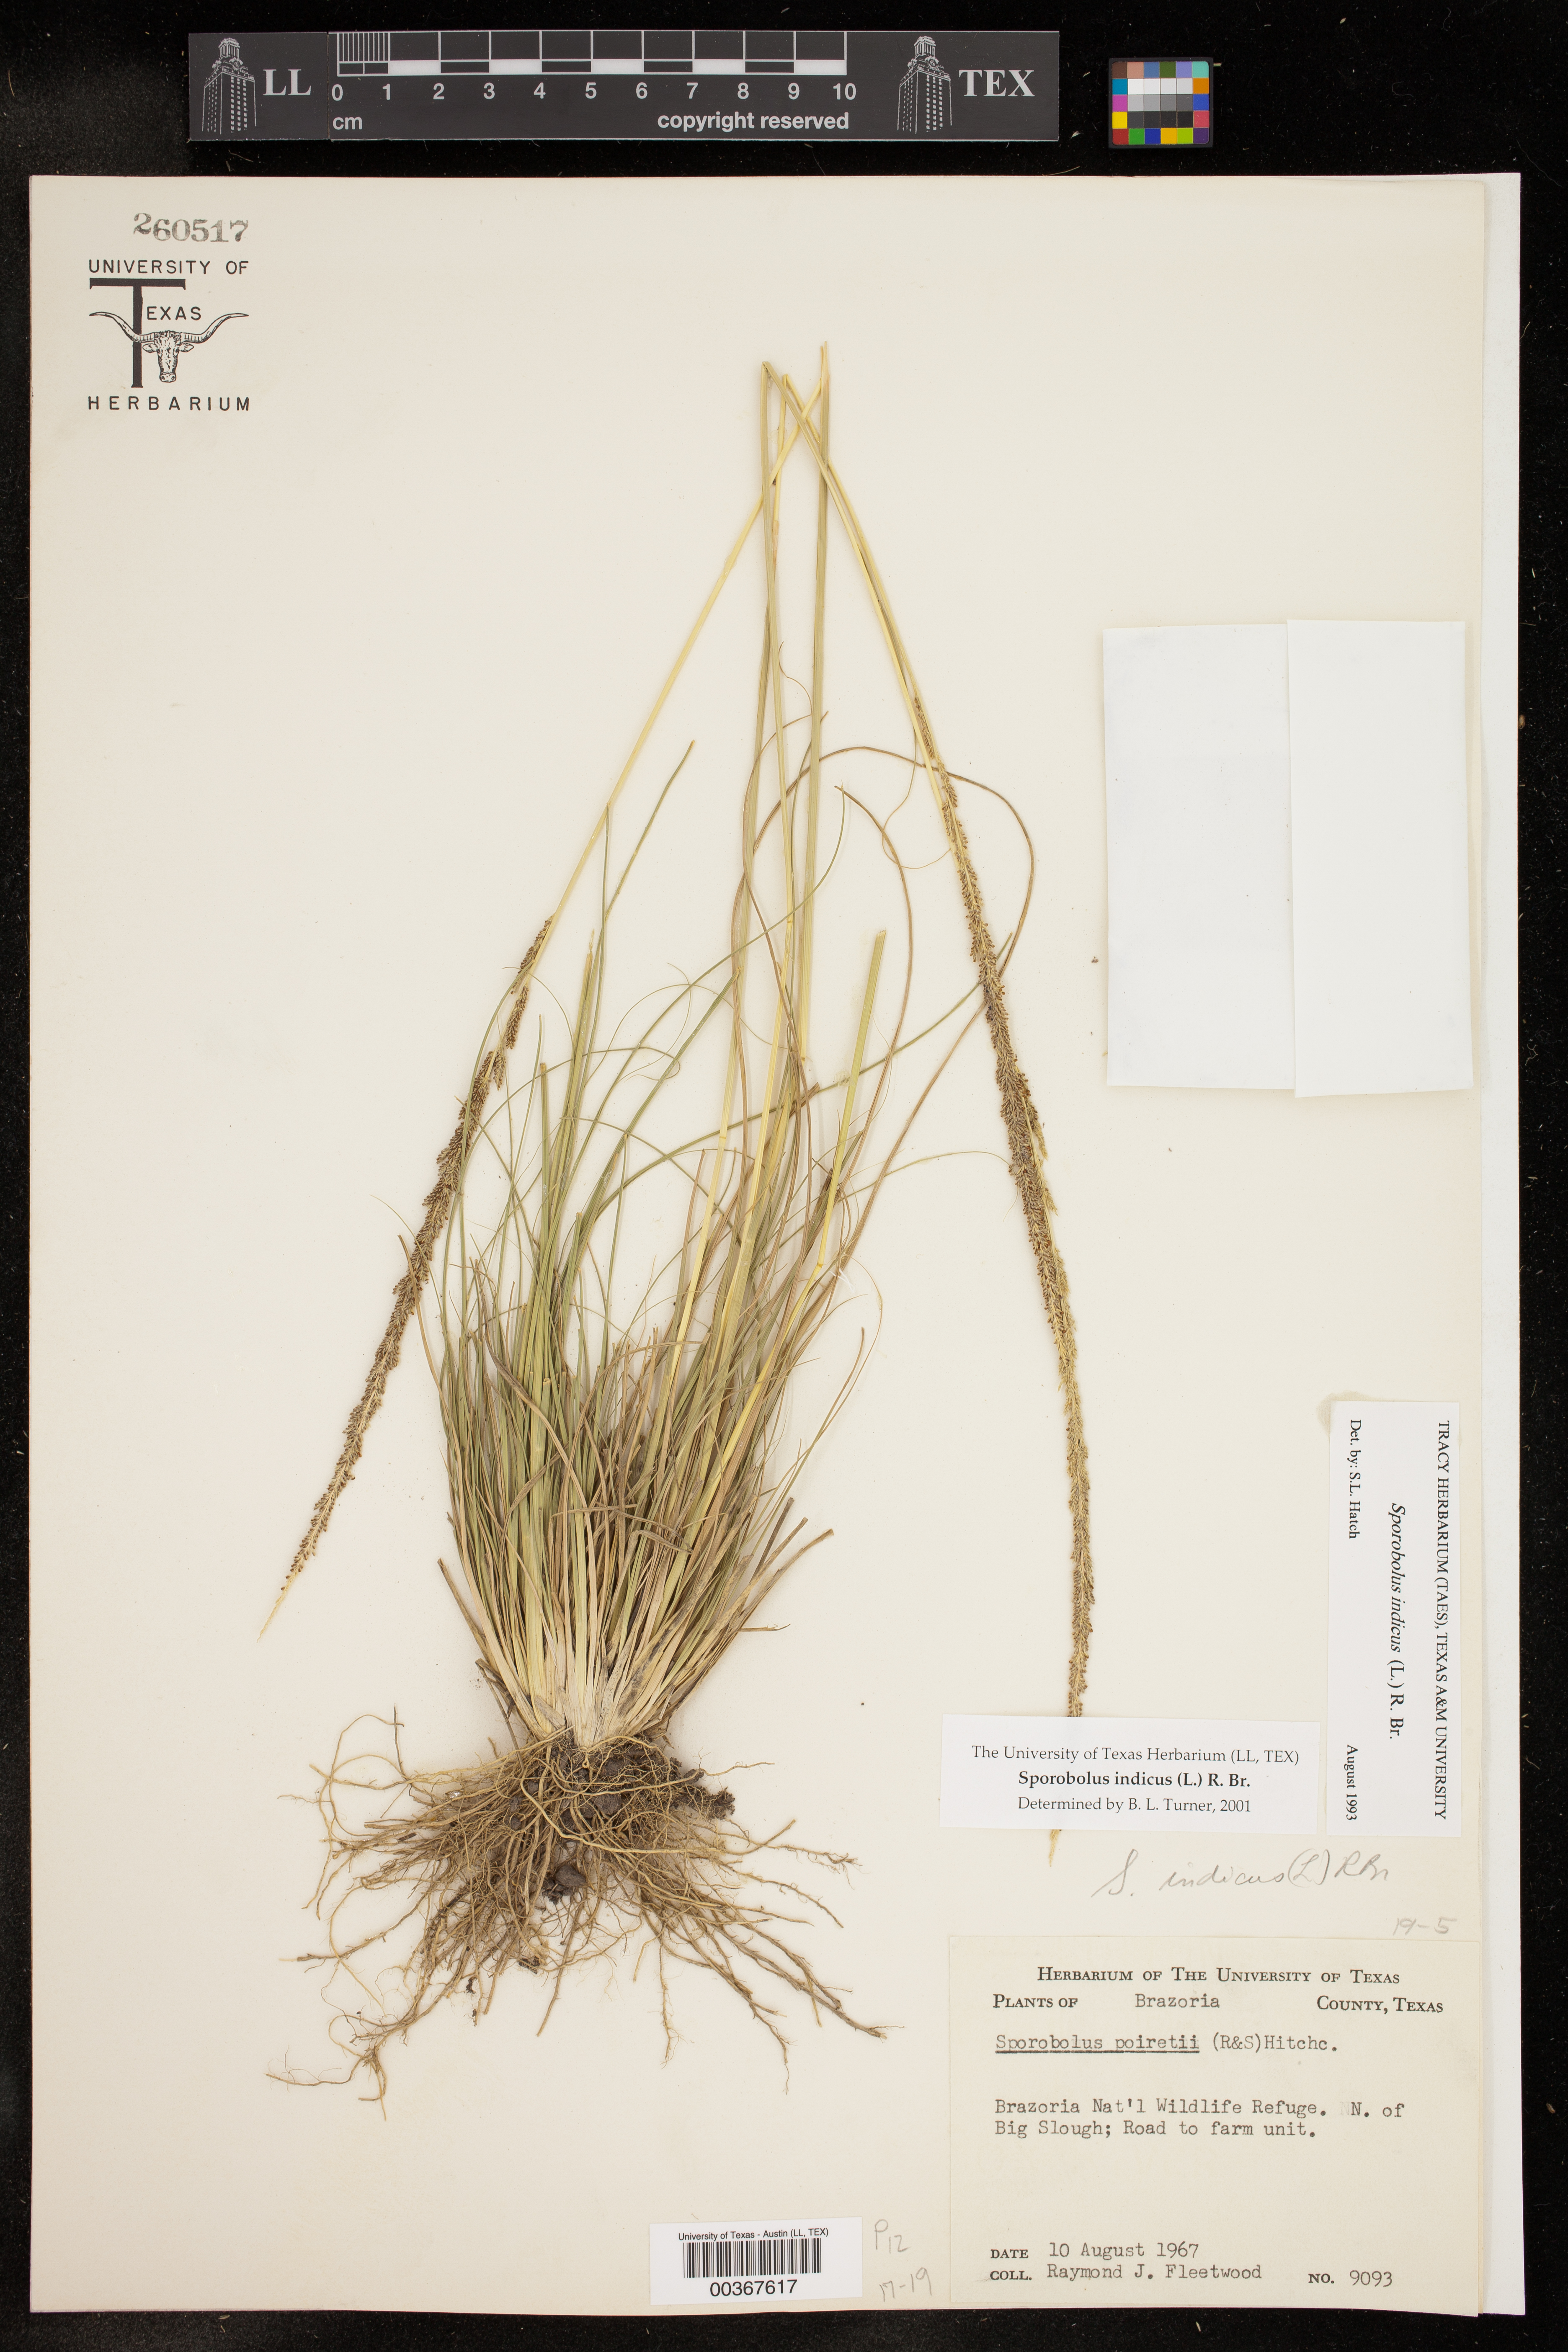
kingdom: Plantae
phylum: Tracheophyta
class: Liliopsida
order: Poales
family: Poaceae
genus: Sporobolus
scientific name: Sporobolus indicus
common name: Smut grass
